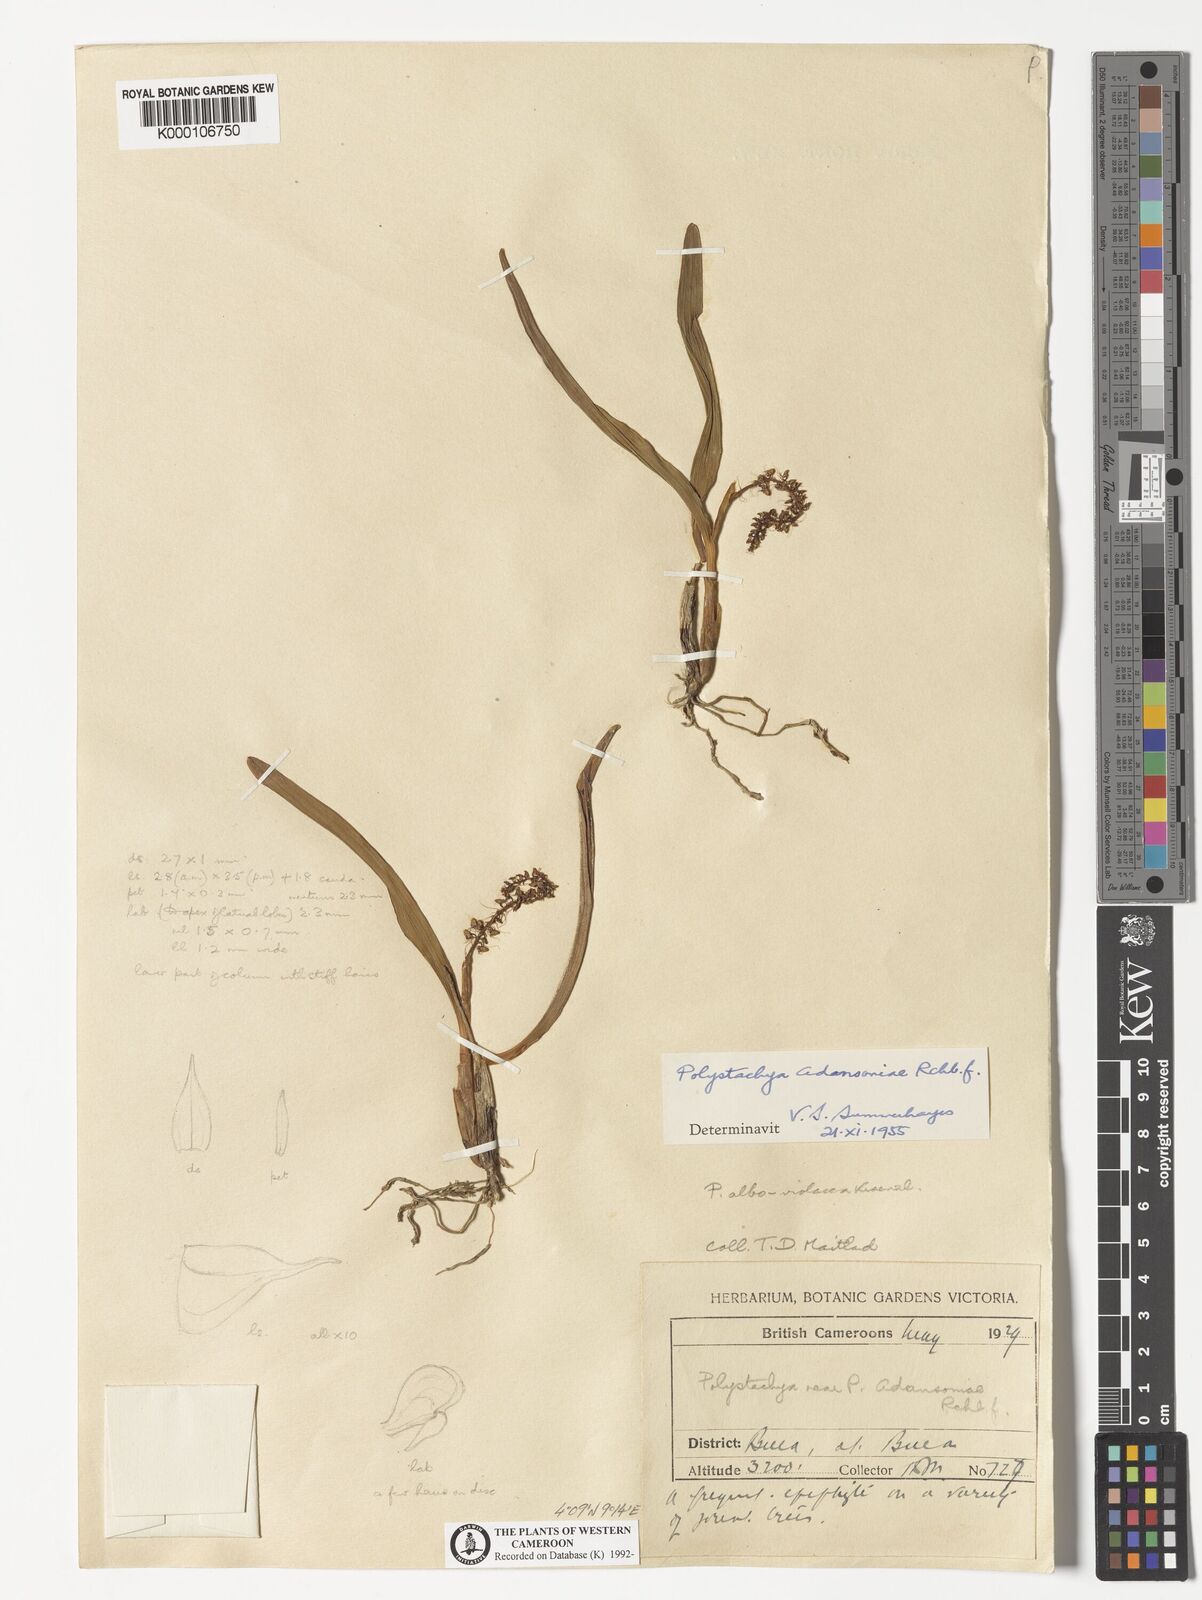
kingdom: Plantae
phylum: Tracheophyta
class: Liliopsida
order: Asparagales
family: Orchidaceae
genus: Polystachya
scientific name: Polystachya adansoniae
